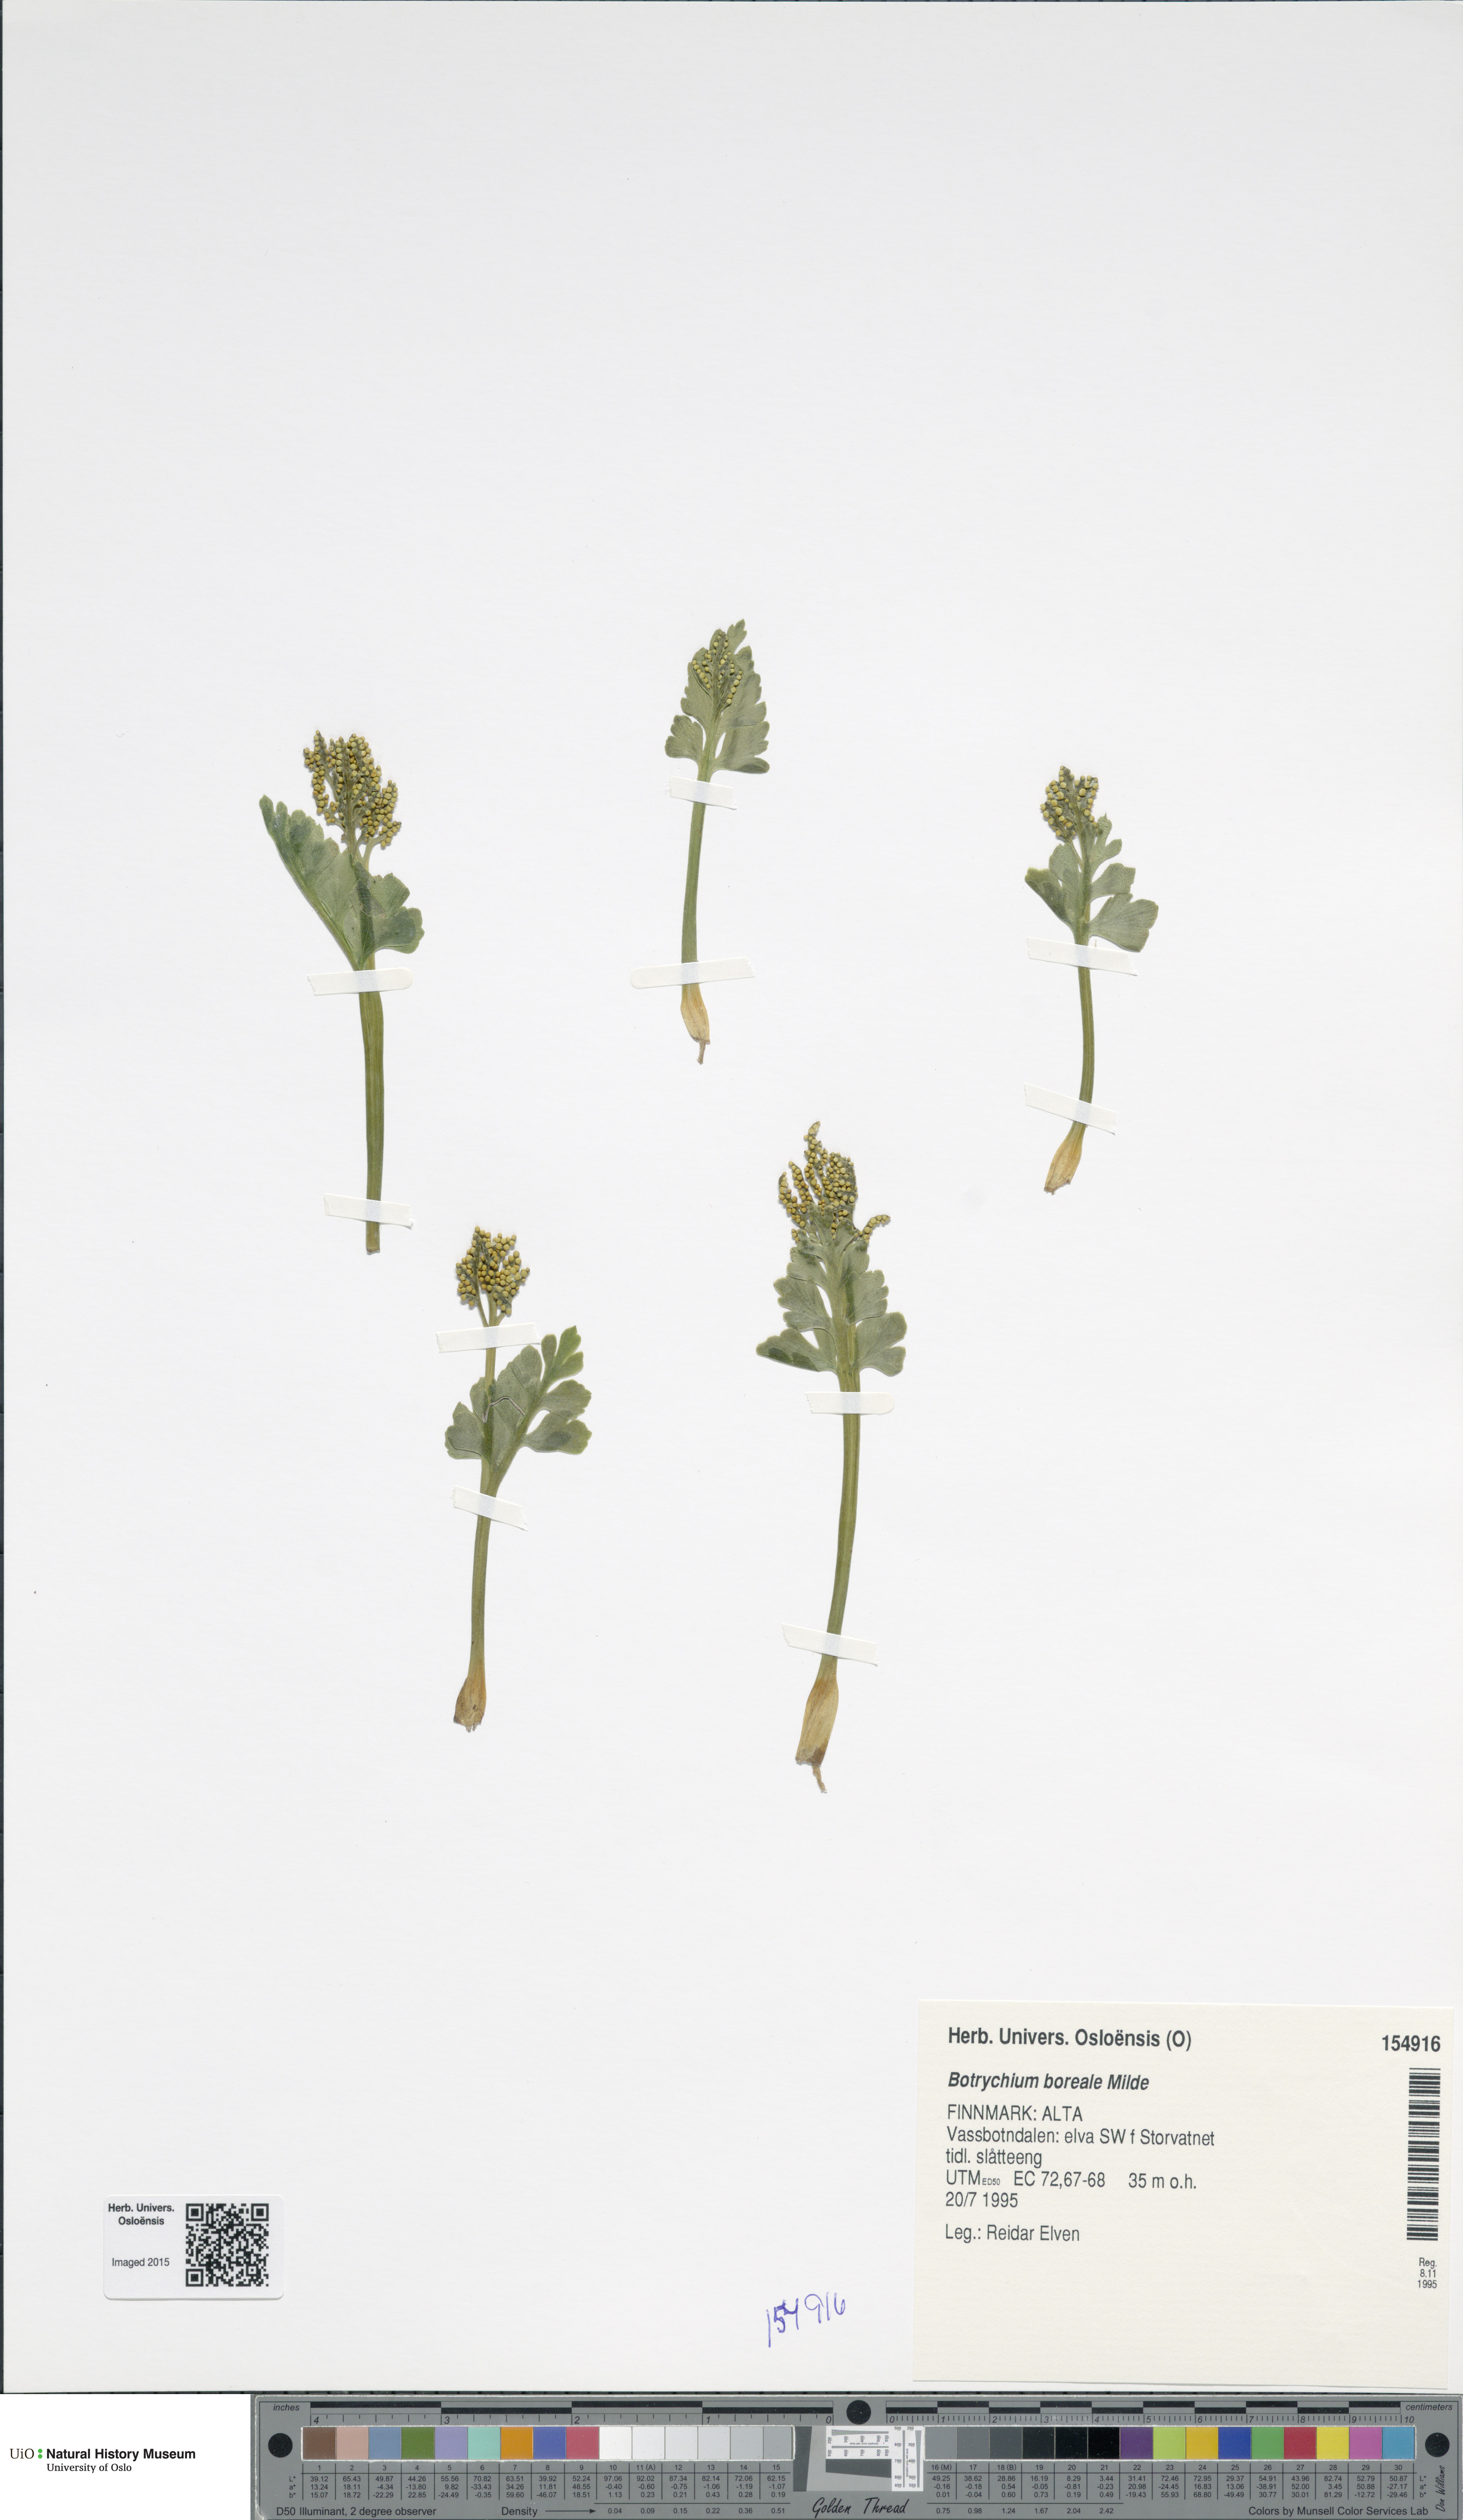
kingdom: Plantae
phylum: Tracheophyta
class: Polypodiopsida
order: Ophioglossales
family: Ophioglossaceae
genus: Botrychium
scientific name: Botrychium boreale
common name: Boreal moonwort
